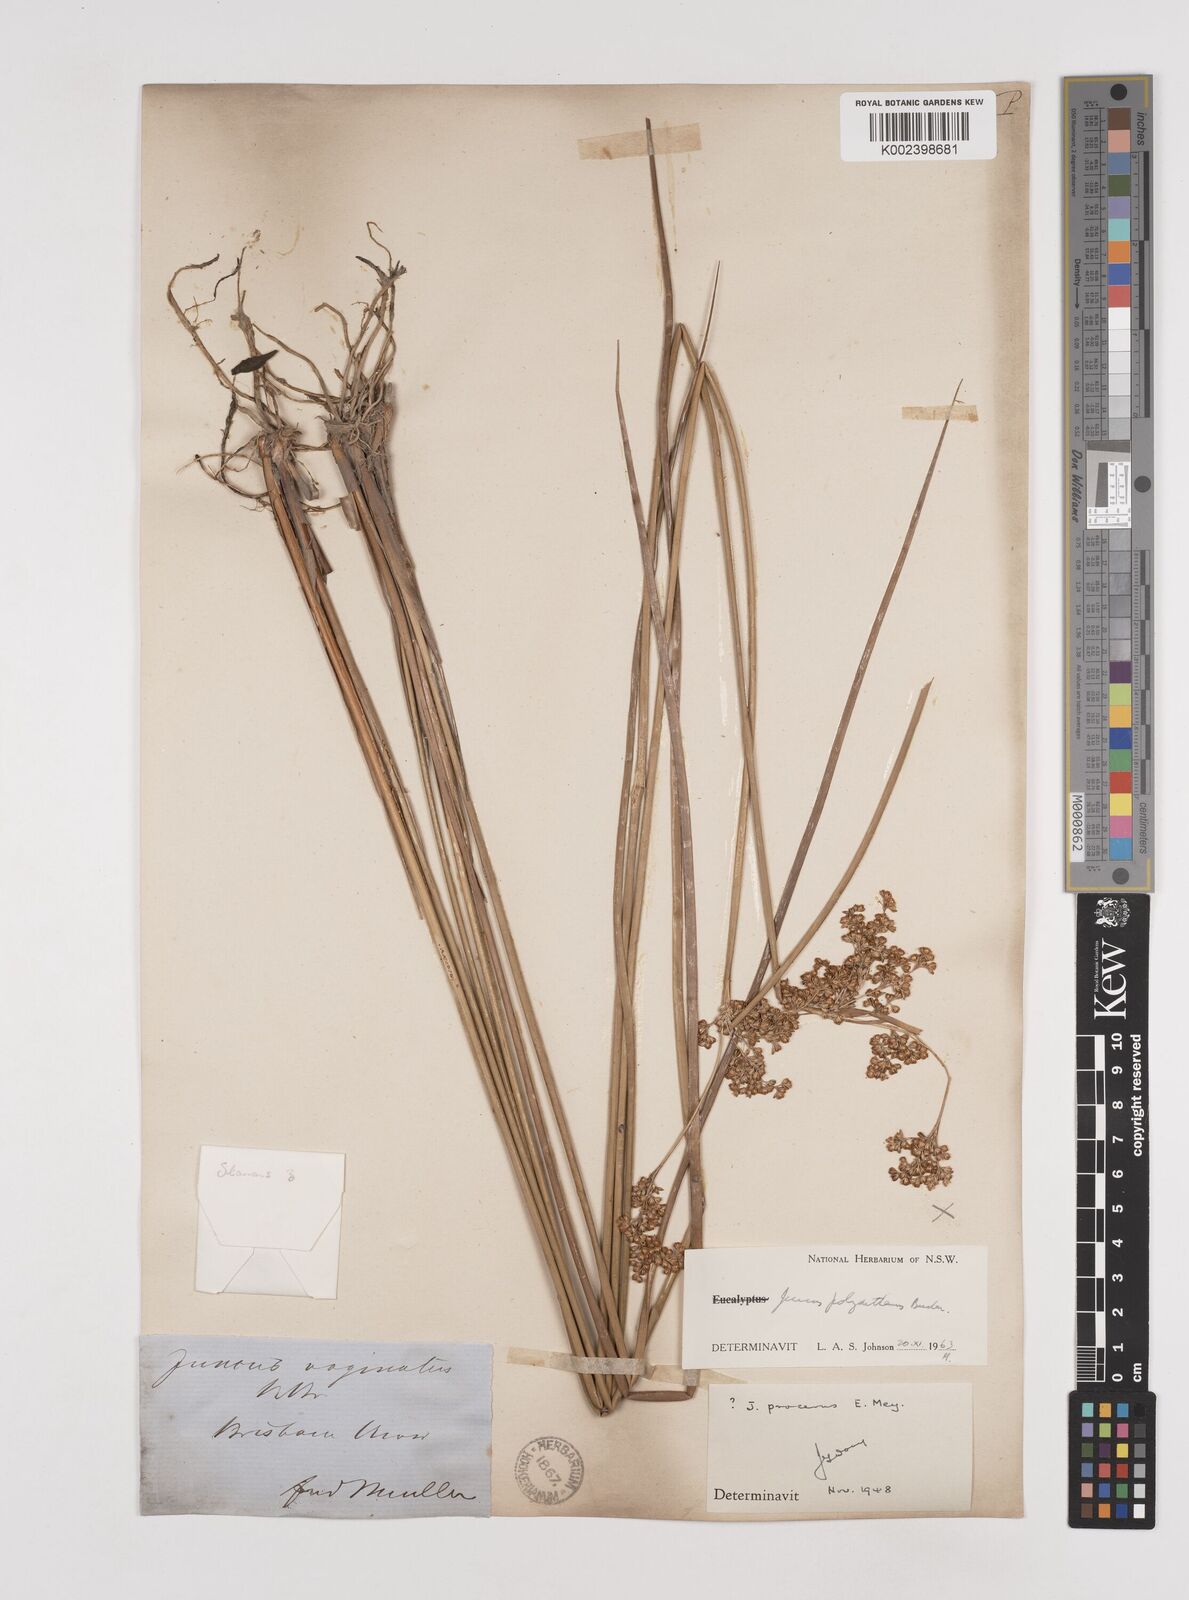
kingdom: Plantae
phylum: Tracheophyta
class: Liliopsida
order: Poales
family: Juncaceae
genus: Juncus
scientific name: Juncus polyanthemus
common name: Manyflower rush
